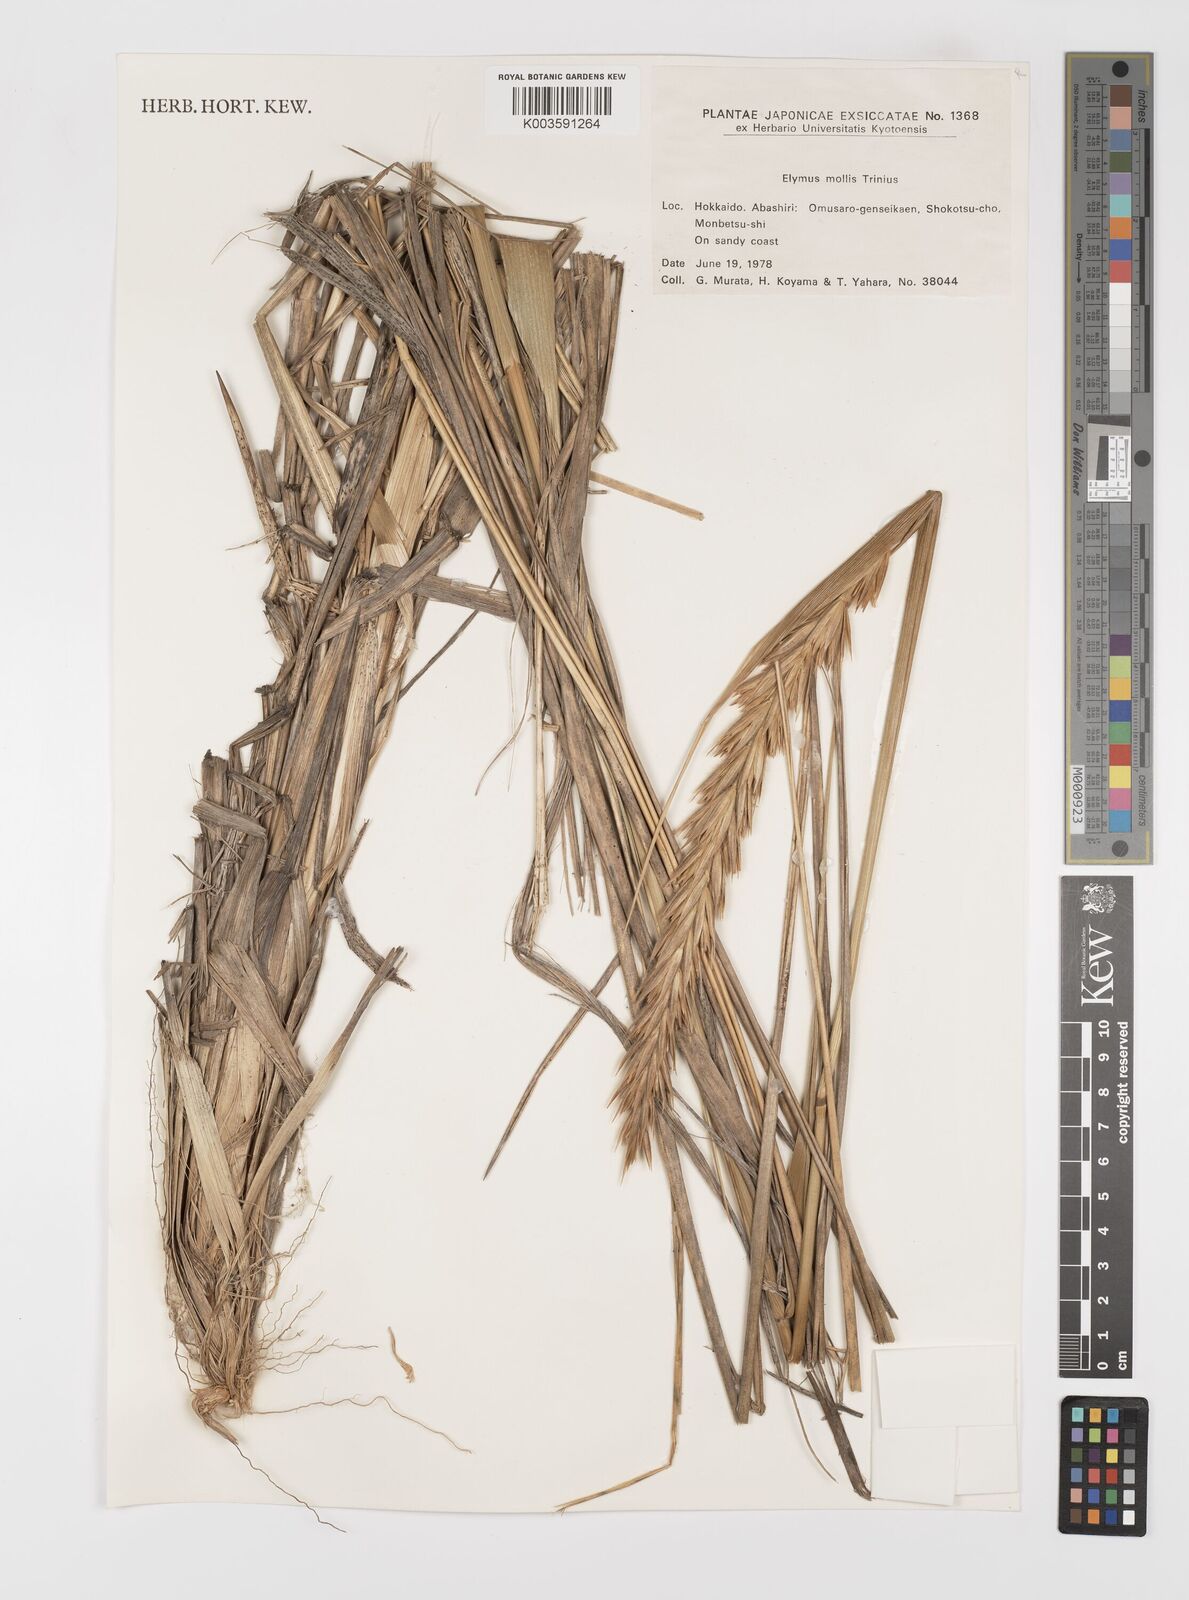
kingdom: Plantae
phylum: Tracheophyta
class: Liliopsida
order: Poales
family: Poaceae
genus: Leymus
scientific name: Leymus mollis
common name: American dune grass
